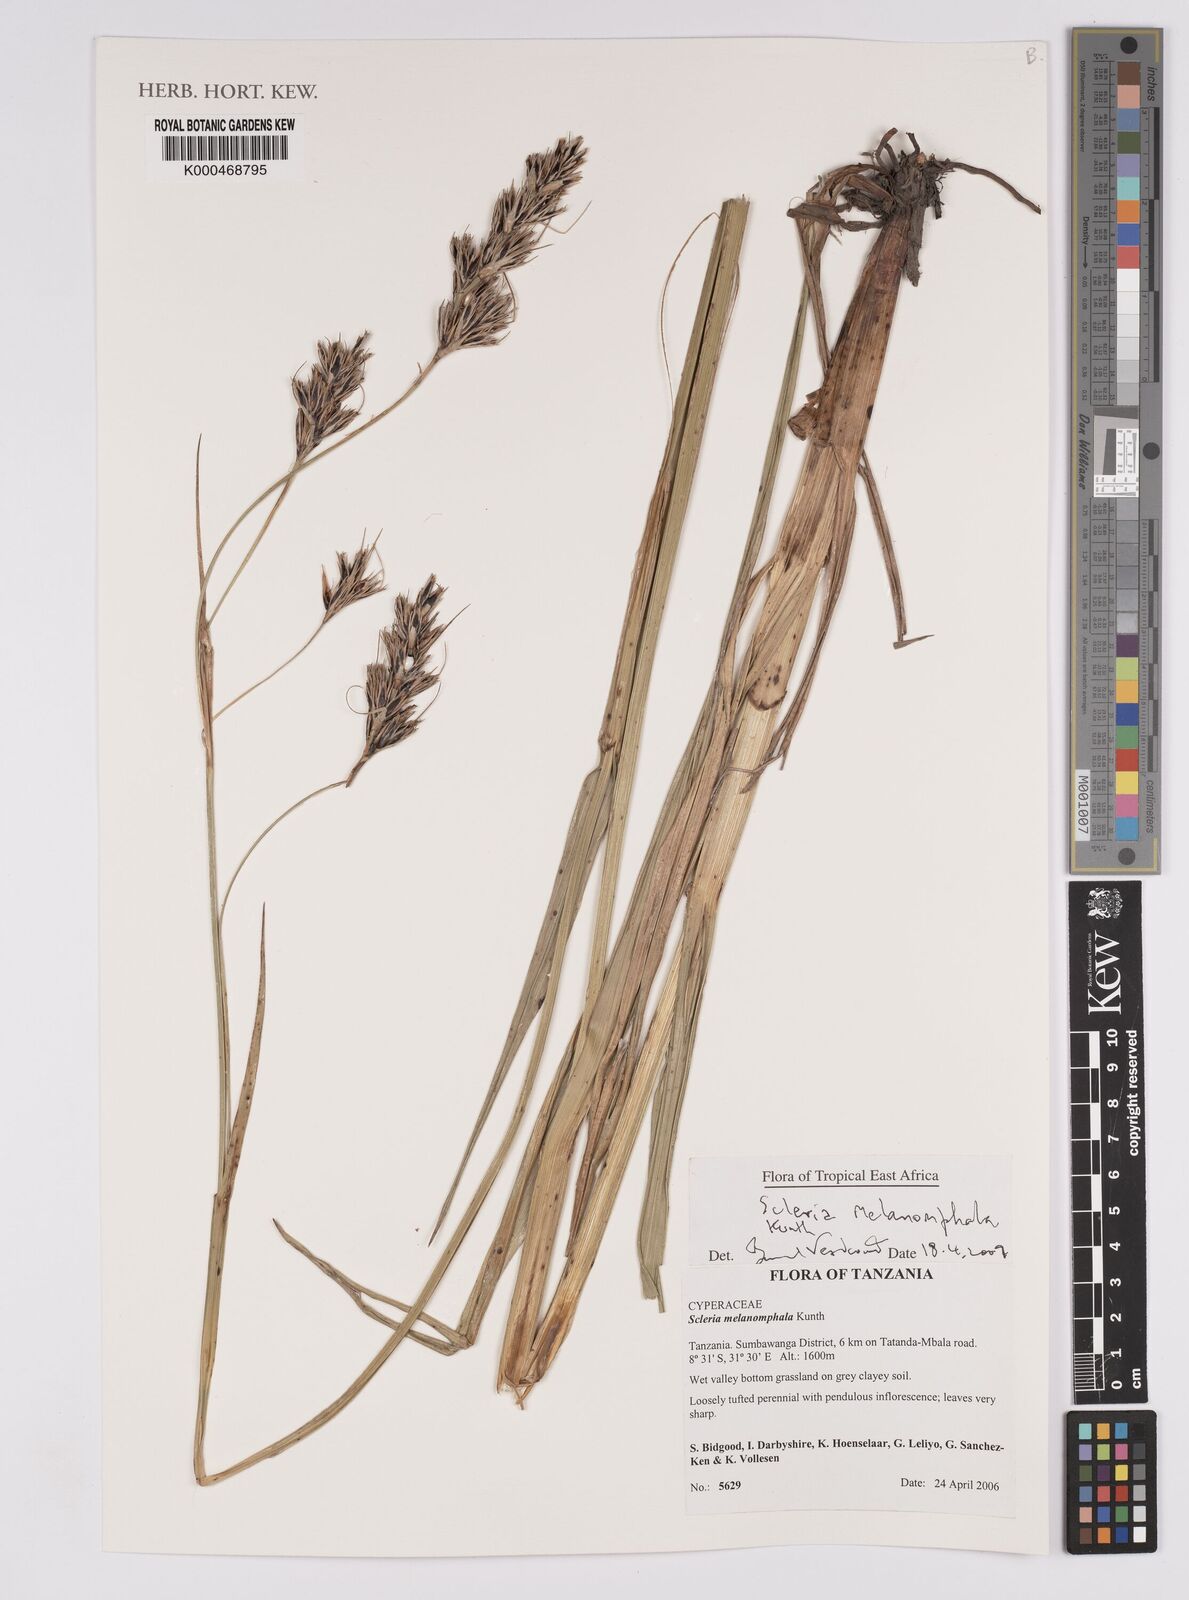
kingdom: Plantae
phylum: Tracheophyta
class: Liliopsida
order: Poales
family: Cyperaceae
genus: Scleria
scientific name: Scleria melanomphala
